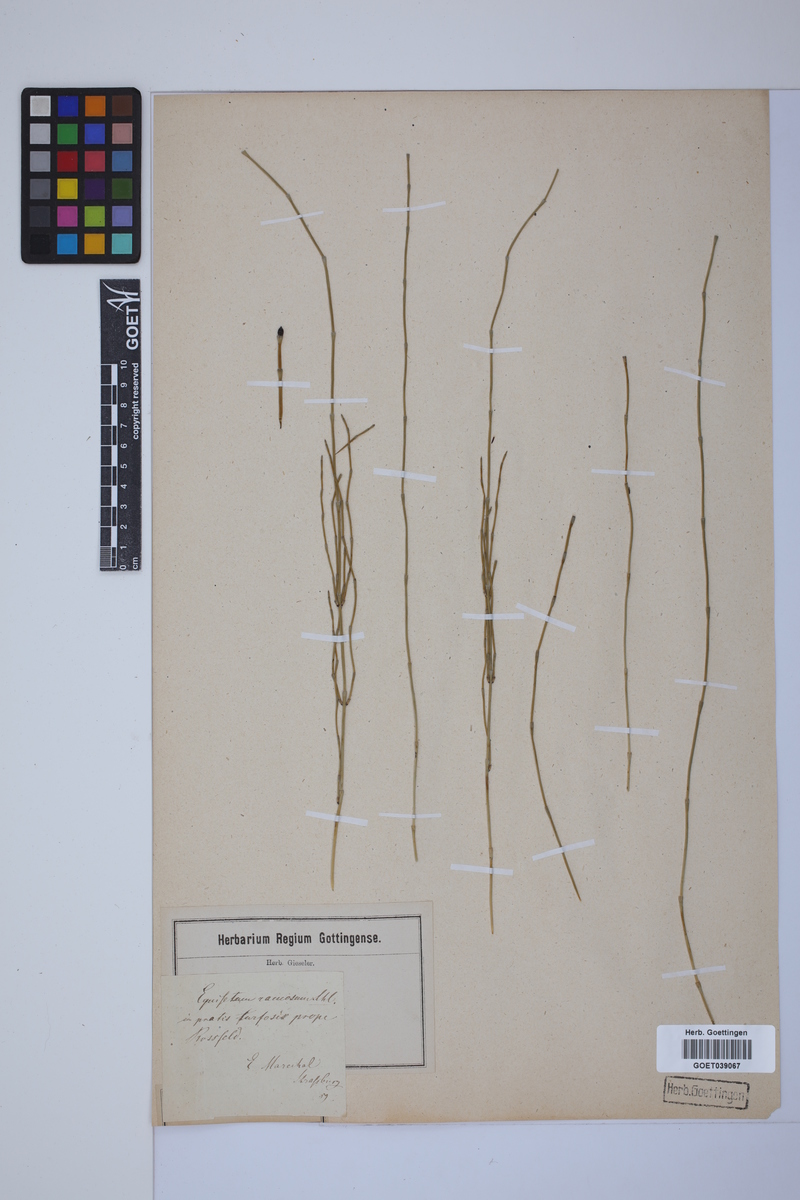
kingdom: Plantae
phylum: Tracheophyta
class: Polypodiopsida
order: Equisetales
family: Equisetaceae
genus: Equisetum
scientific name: Equisetum giganteum
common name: Giant horsetail
